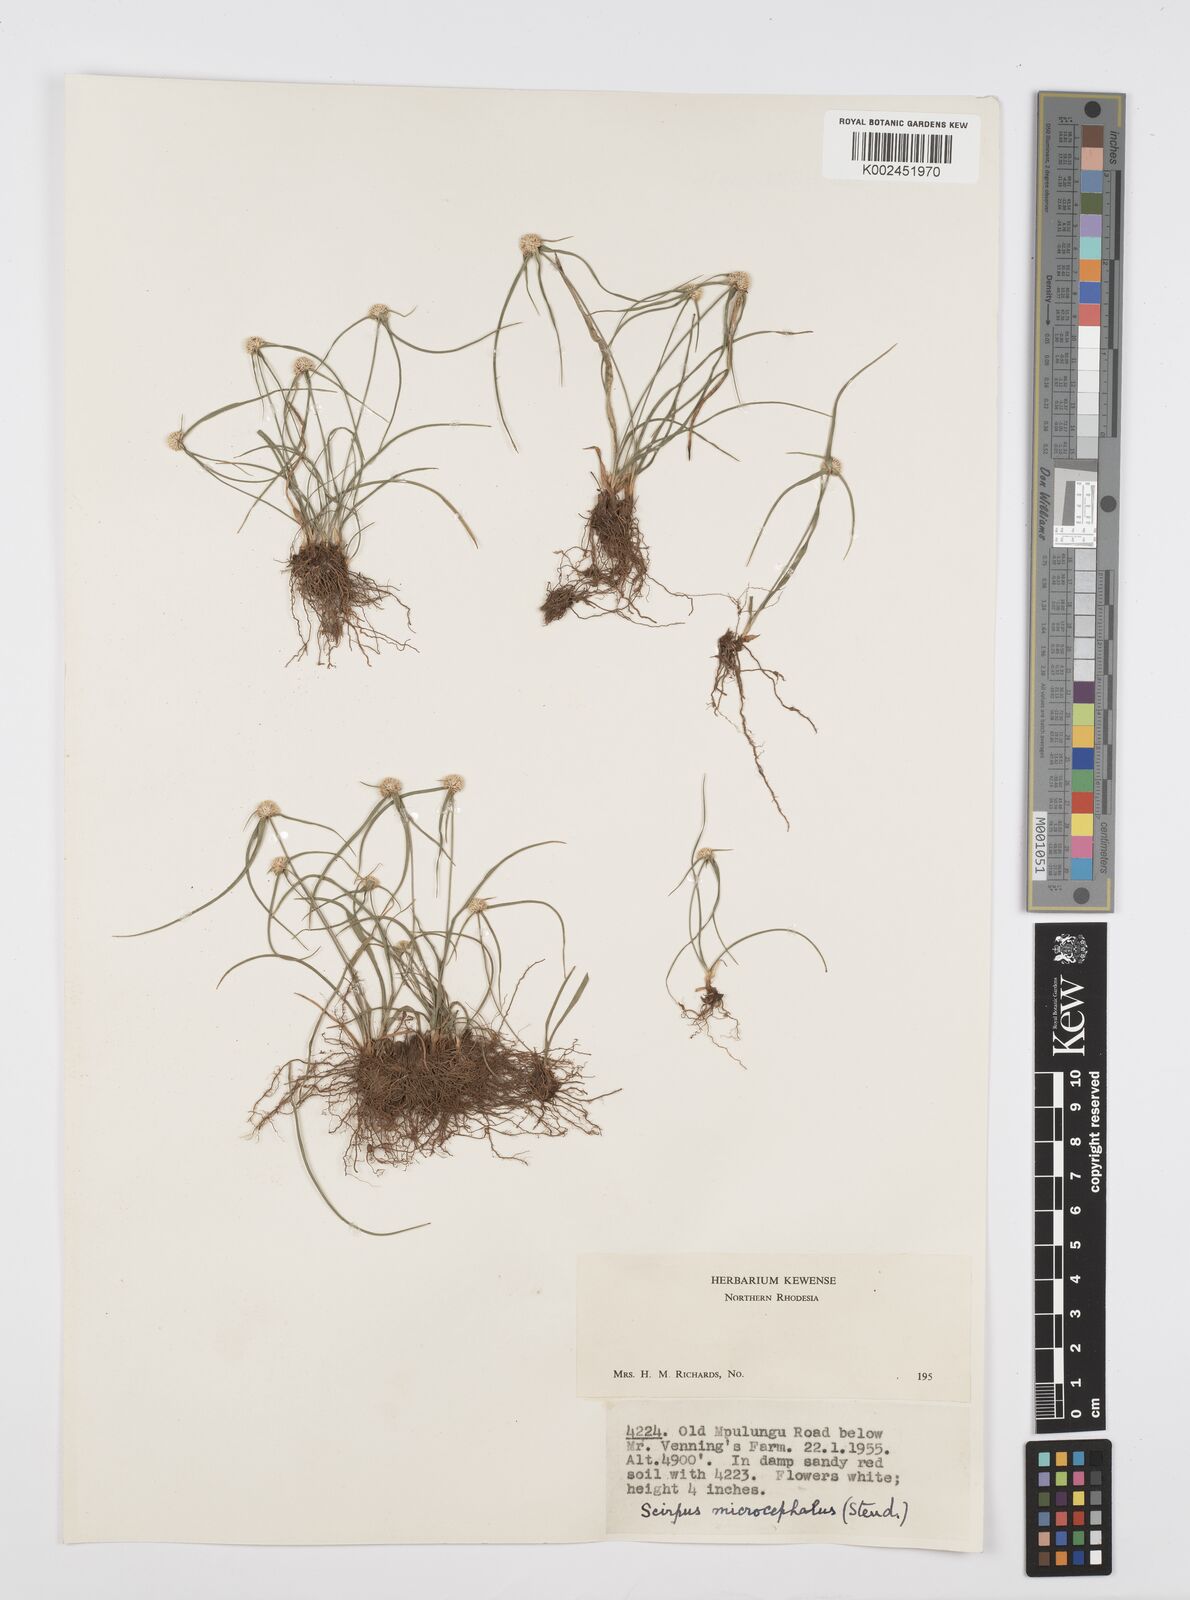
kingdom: Plantae
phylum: Tracheophyta
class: Liliopsida
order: Poales
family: Cyperaceae
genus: Cyperus
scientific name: Cyperus microcephalus
